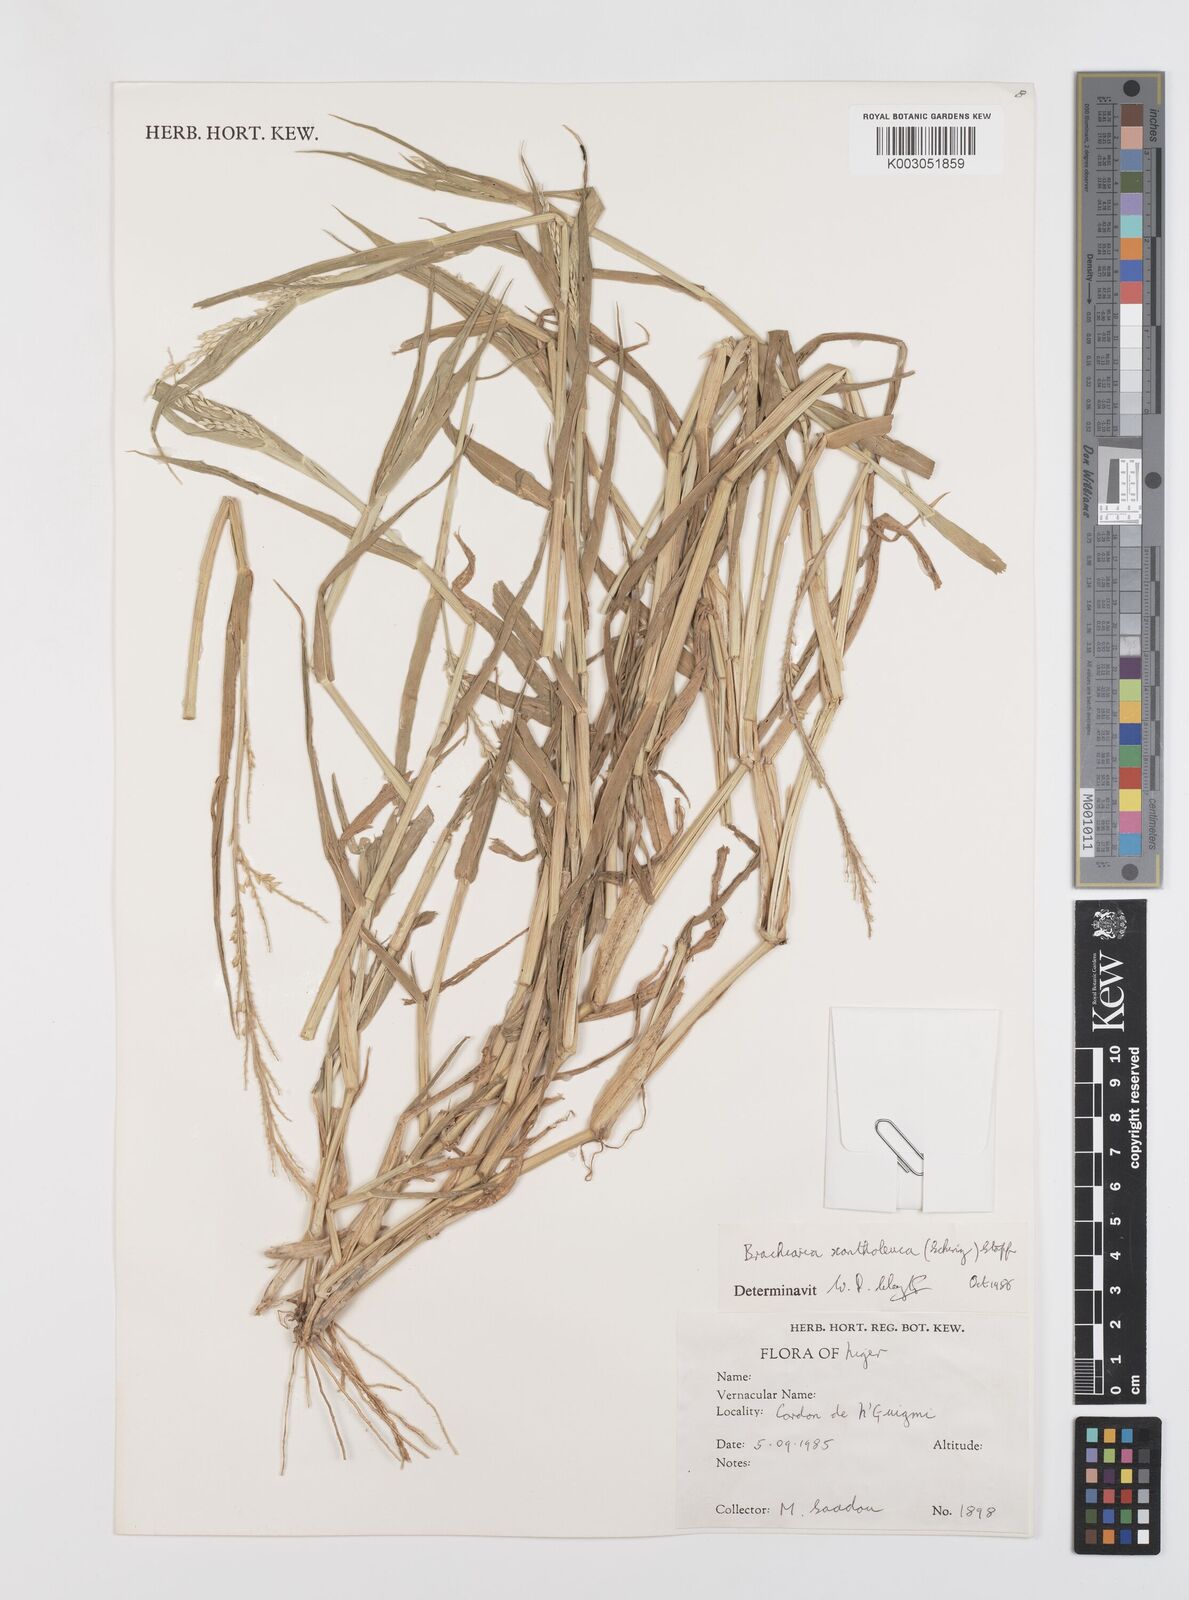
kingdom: Plantae
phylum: Tracheophyta
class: Liliopsida
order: Poales
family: Poaceae
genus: Urochloa
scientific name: Urochloa xantholeuca
